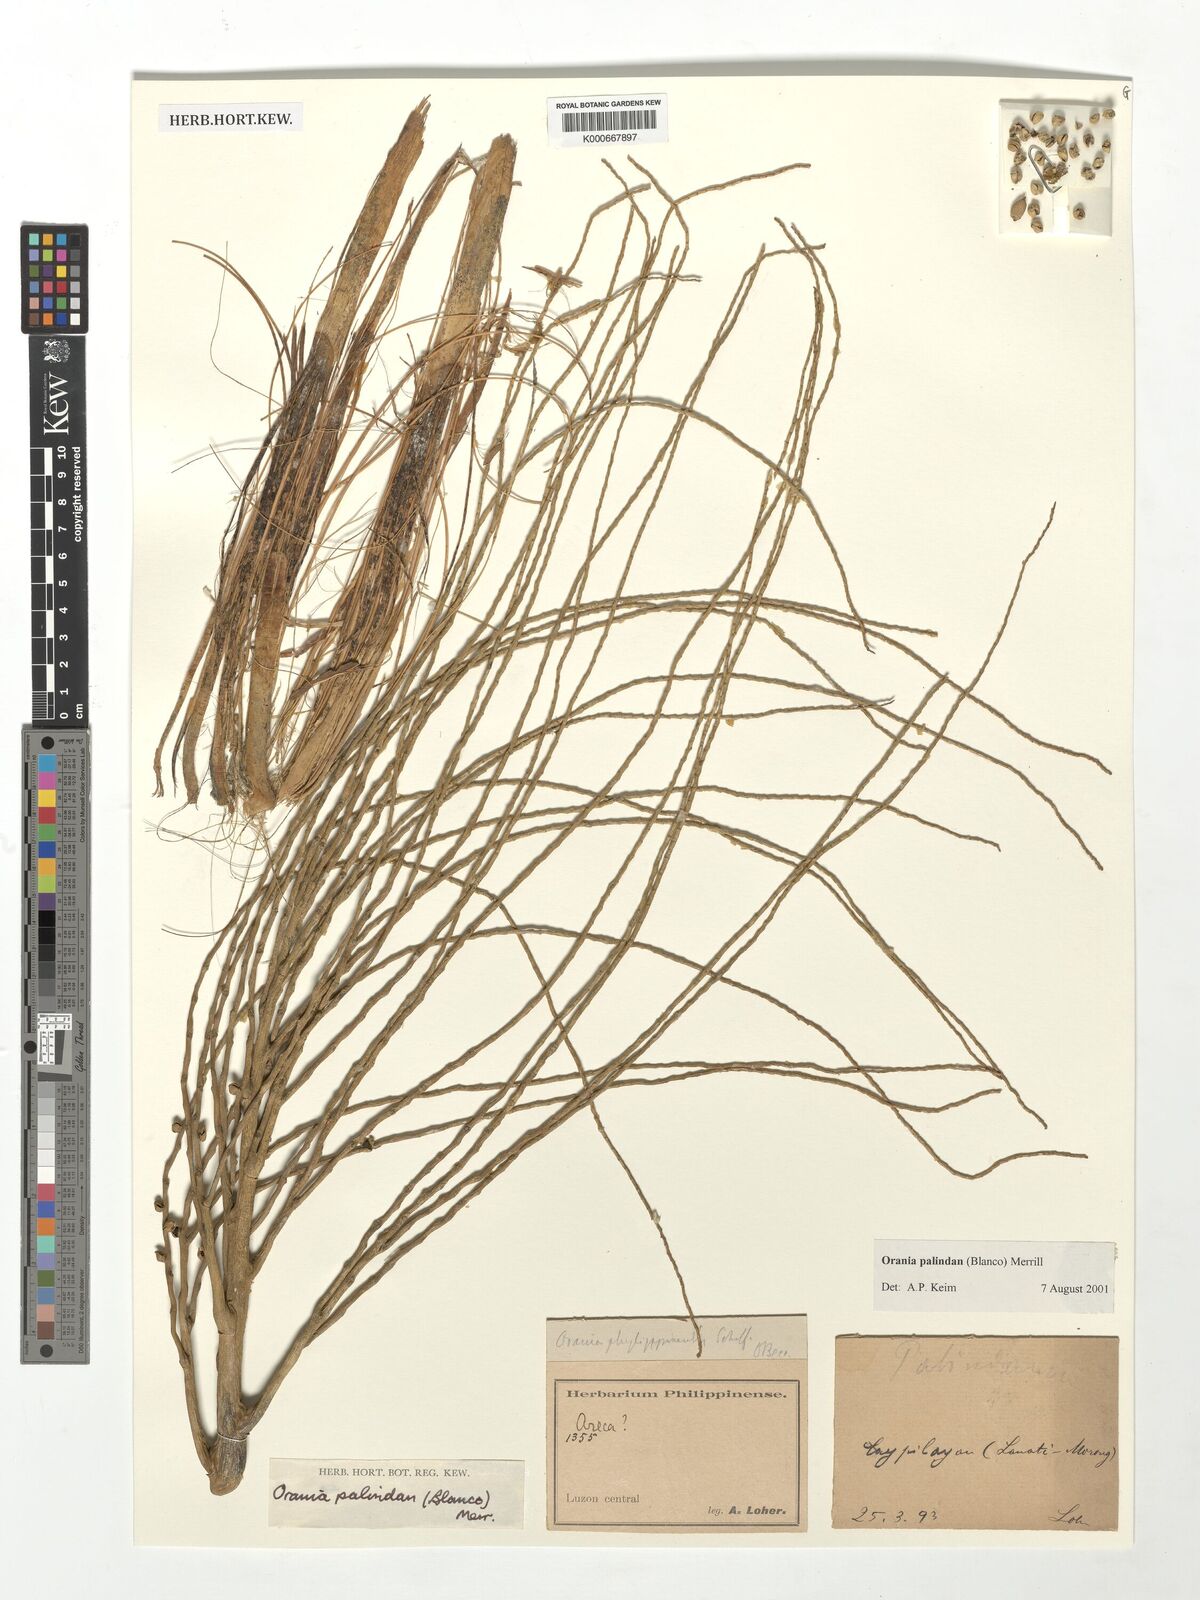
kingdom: Plantae
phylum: Tracheophyta
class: Liliopsida
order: Arecales
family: Arecaceae
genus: Orania
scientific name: Orania palindan
